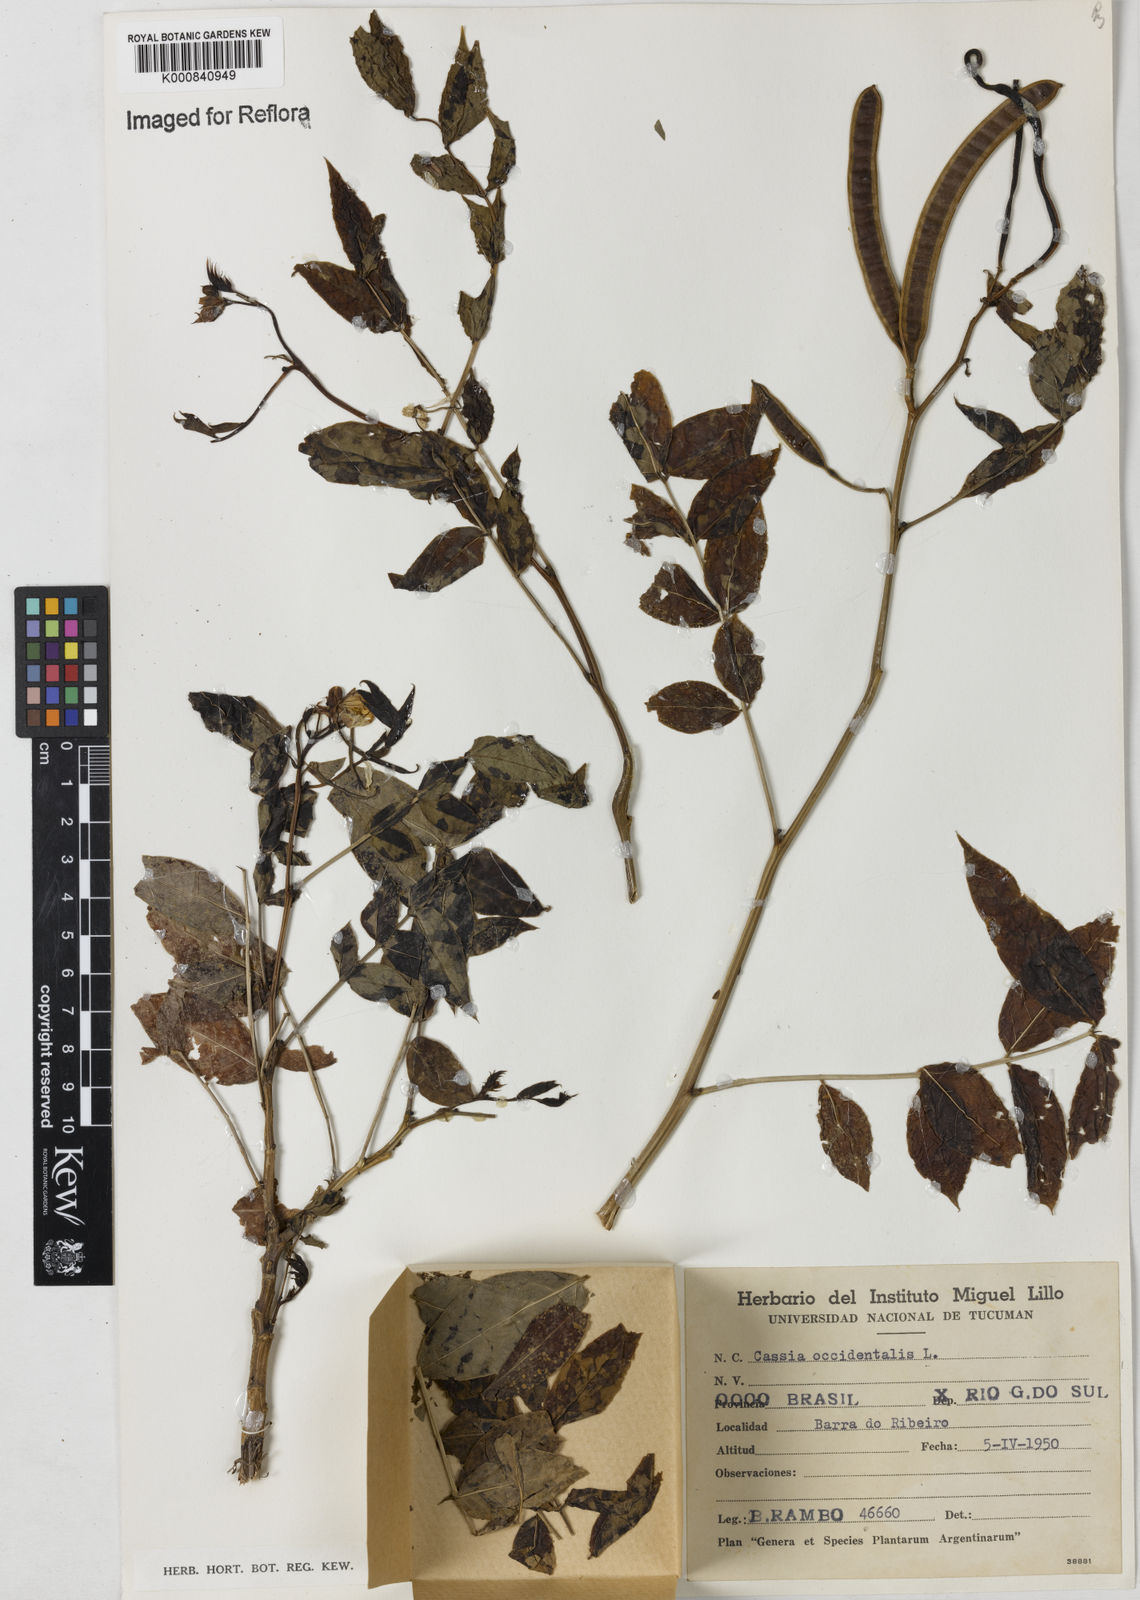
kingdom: Plantae
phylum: Tracheophyta
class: Magnoliopsida
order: Fabales
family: Fabaceae
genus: Senna
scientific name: Senna occidentalis
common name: Septicweed
